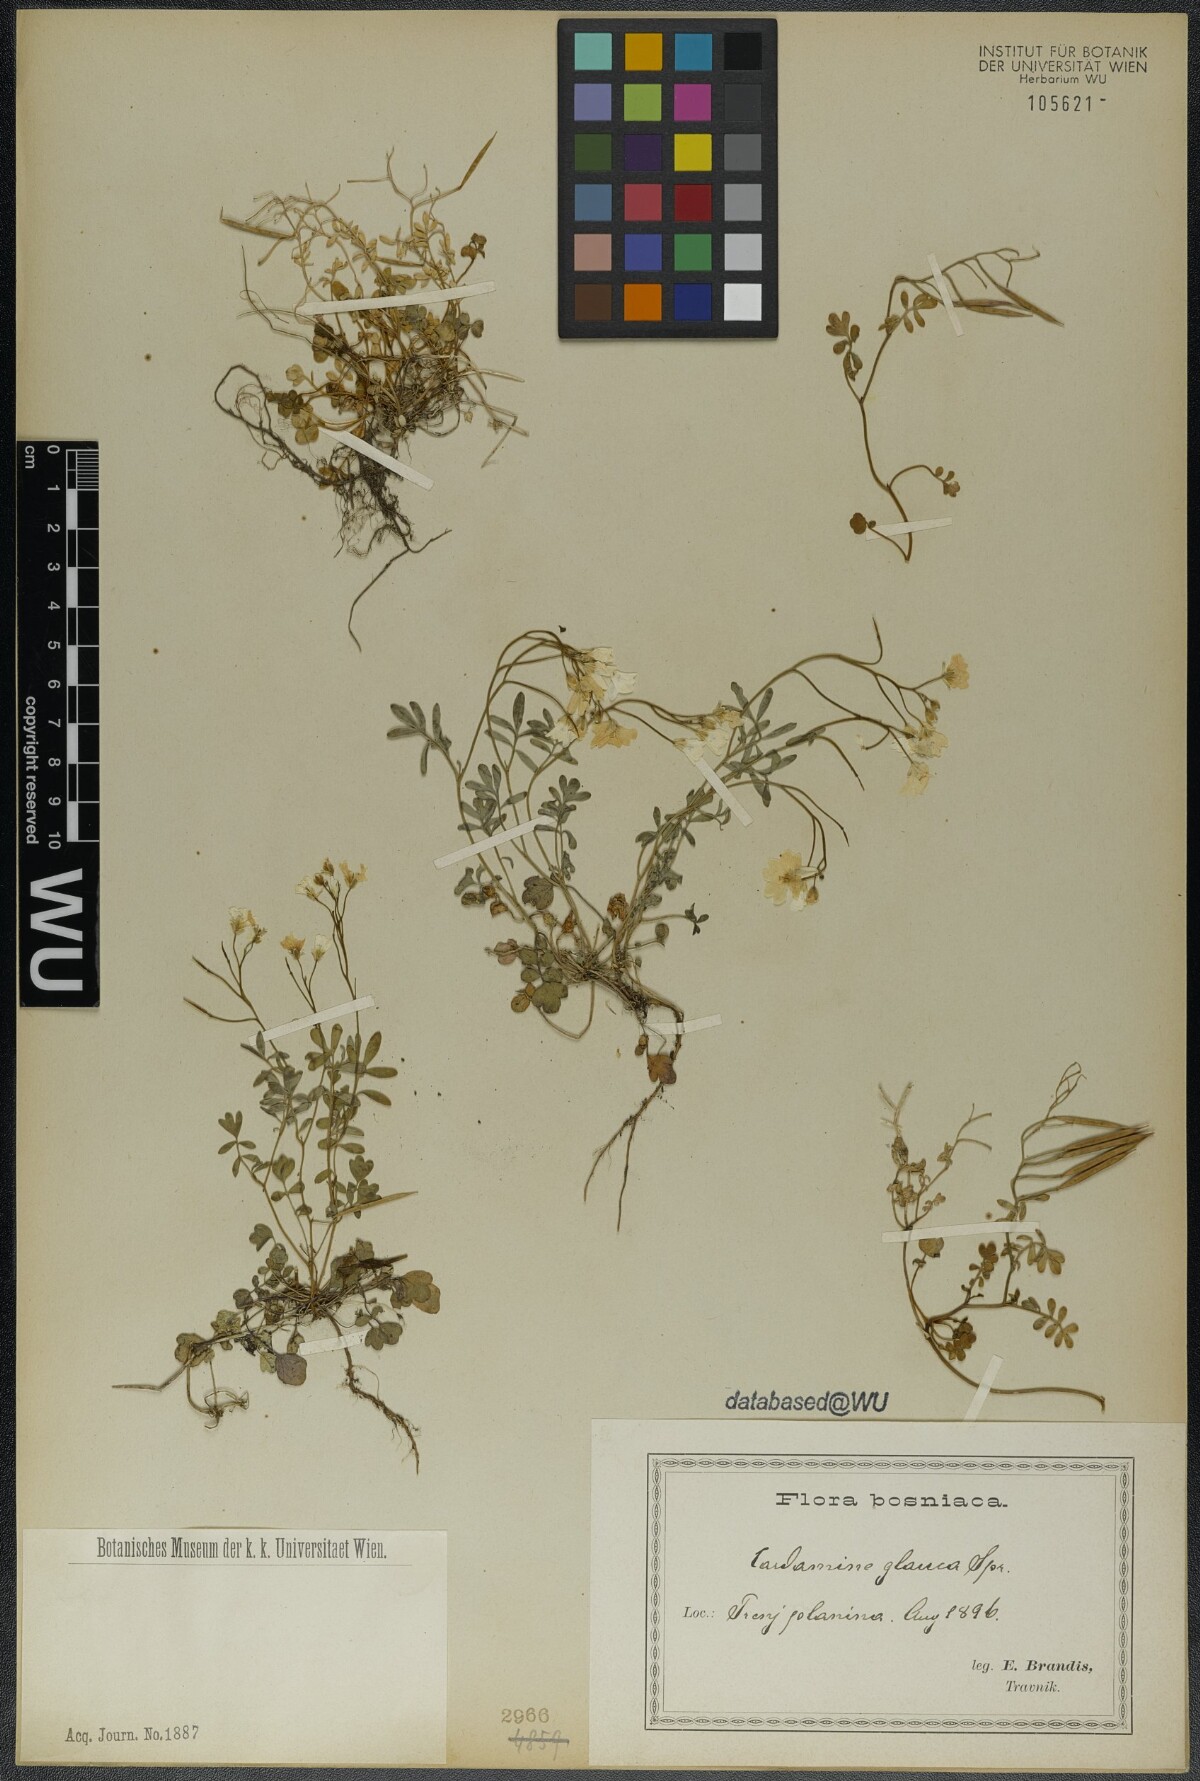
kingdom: Plantae
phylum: Tracheophyta
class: Magnoliopsida
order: Brassicales
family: Brassicaceae
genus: Cardamine
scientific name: Cardamine glauca
